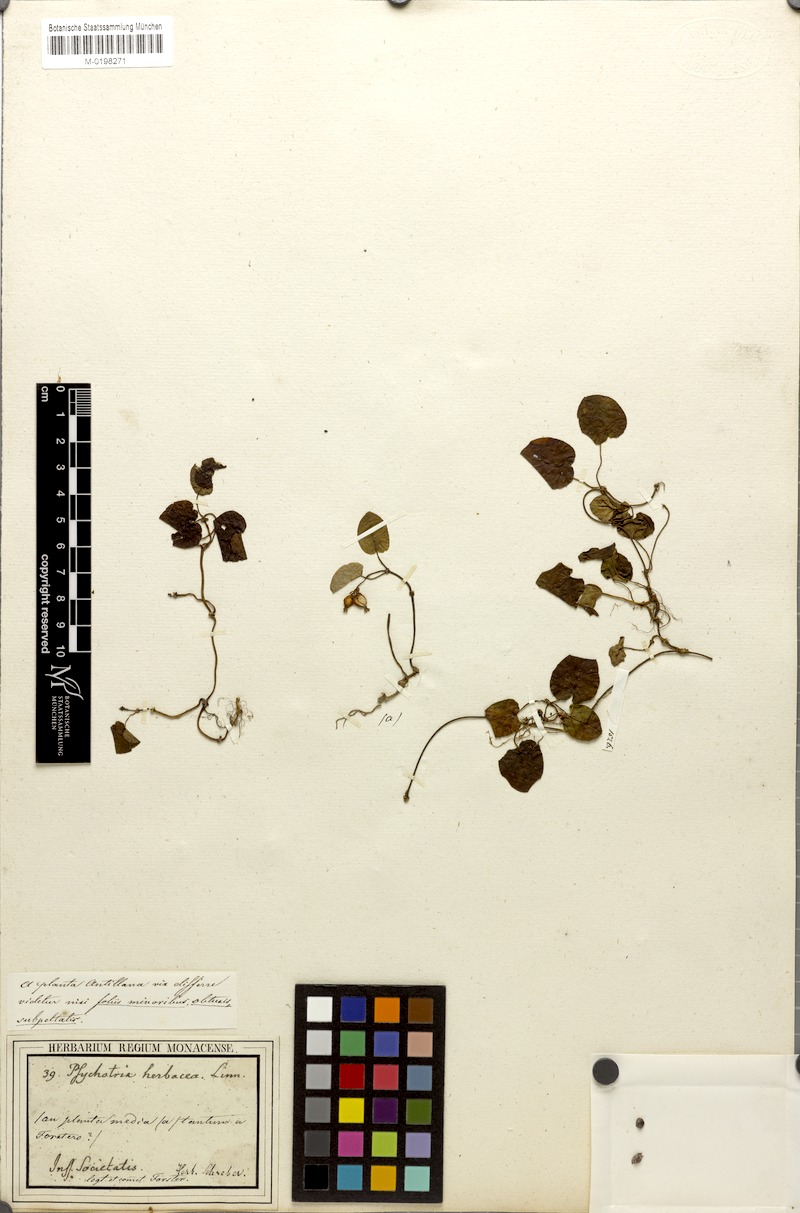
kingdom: Plantae
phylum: Tracheophyta
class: Magnoliopsida
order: Gentianales
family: Rubiaceae
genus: Geophila
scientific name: Geophila repens
